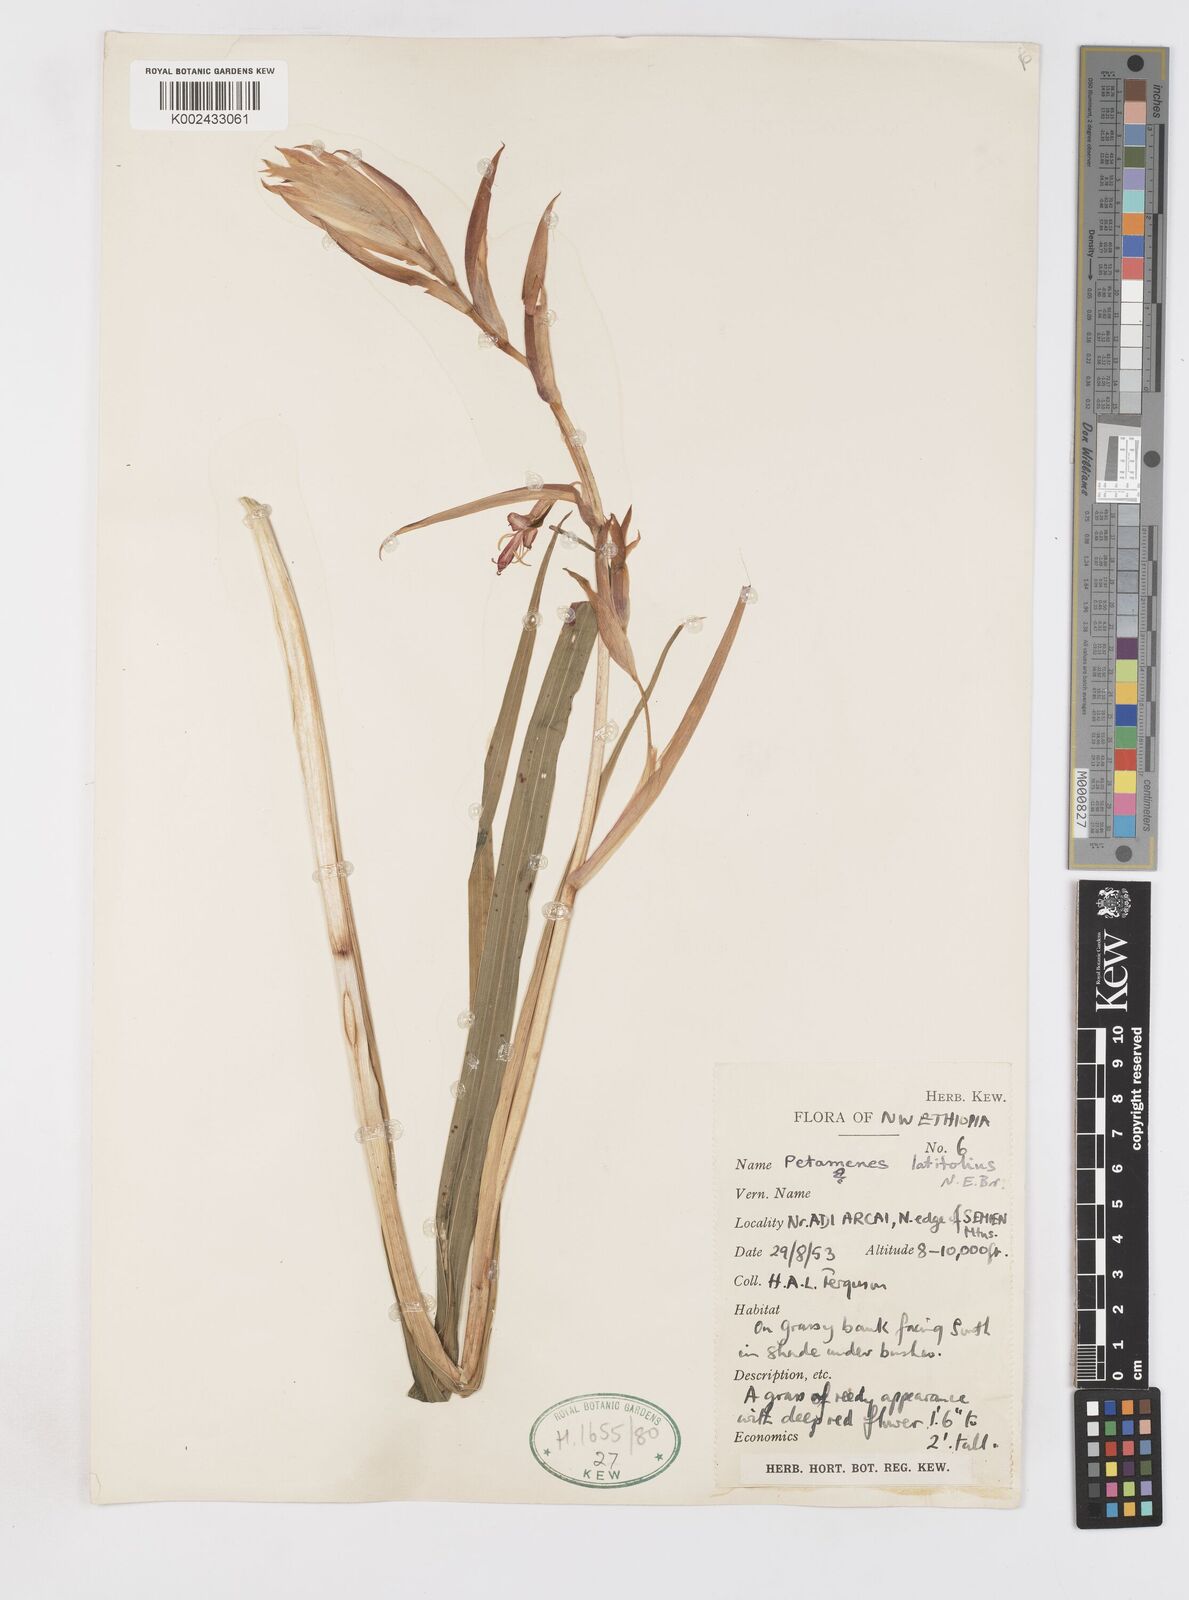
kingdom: Plantae
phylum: Tracheophyta
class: Liliopsida
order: Asparagales
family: Iridaceae
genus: Gladiolus
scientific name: Gladiolus abyssinicus
